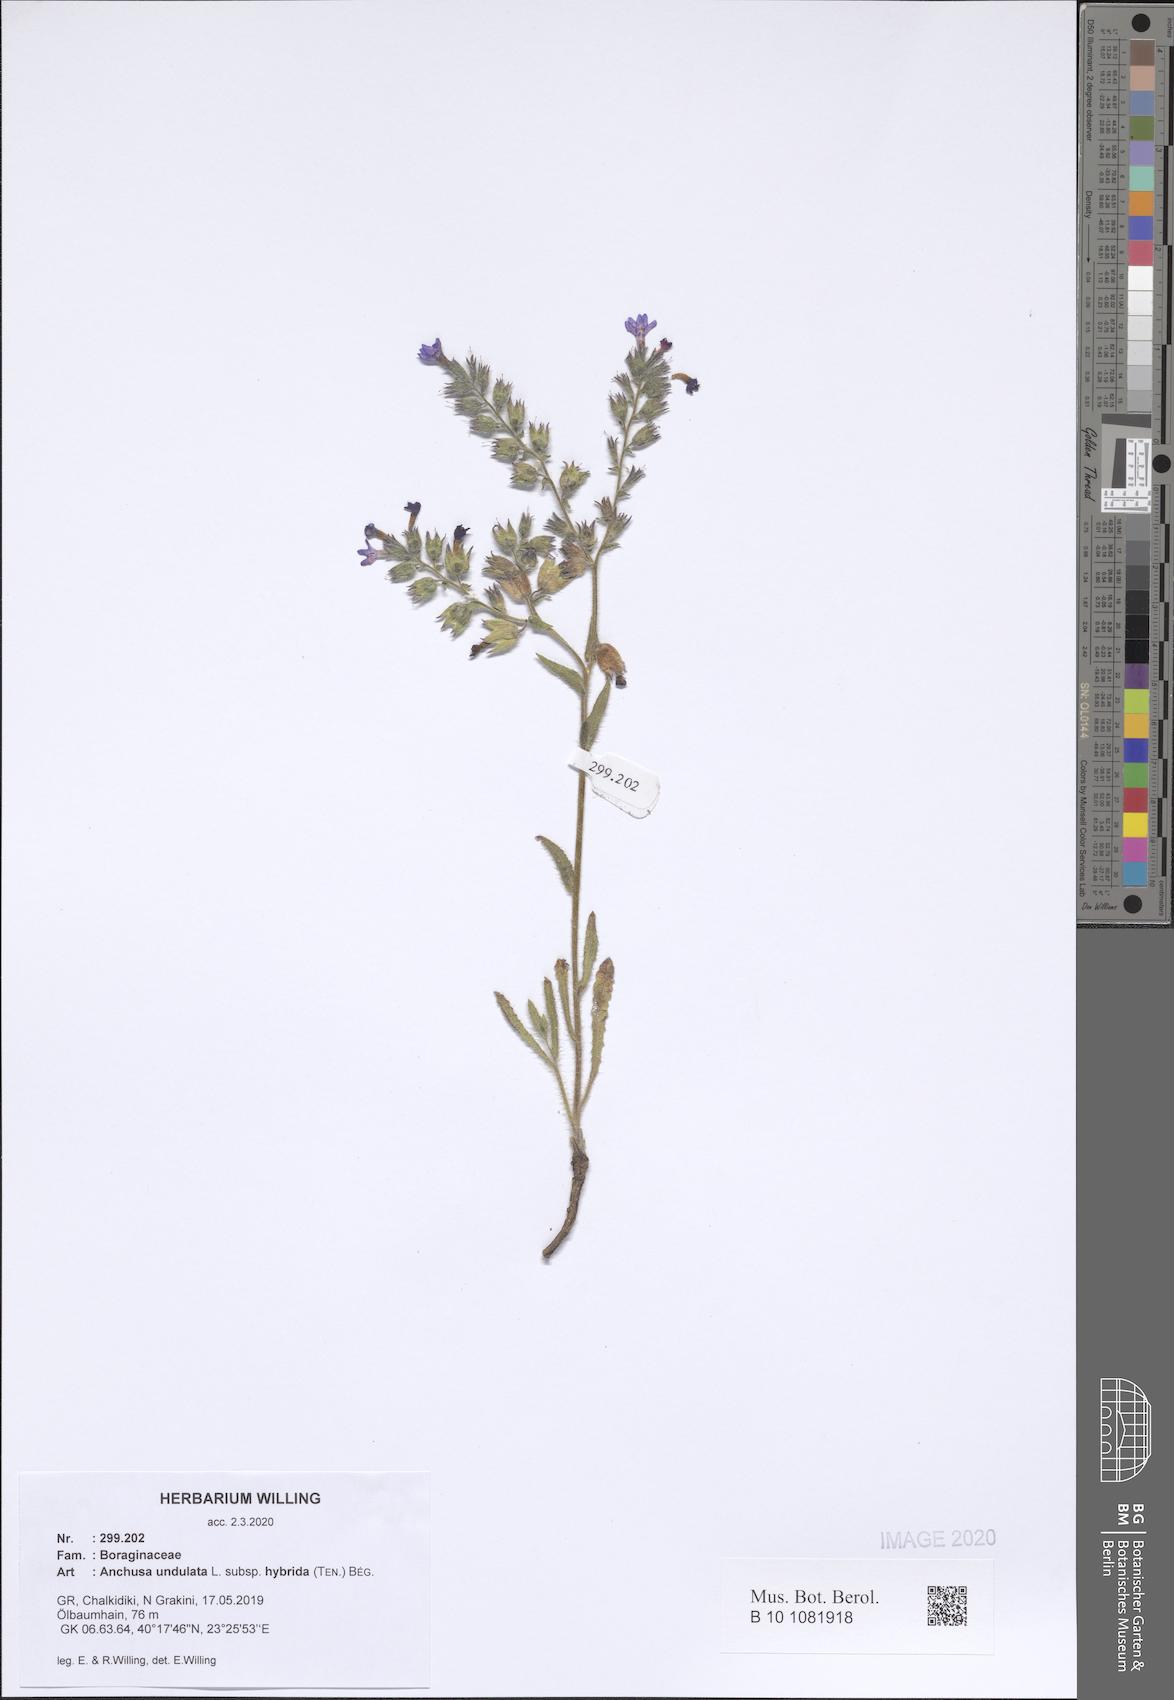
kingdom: Plantae
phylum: Tracheophyta
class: Magnoliopsida
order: Boraginales
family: Boraginaceae
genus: Anchusa
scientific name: Anchusa undulata
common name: Undulate alkanet
